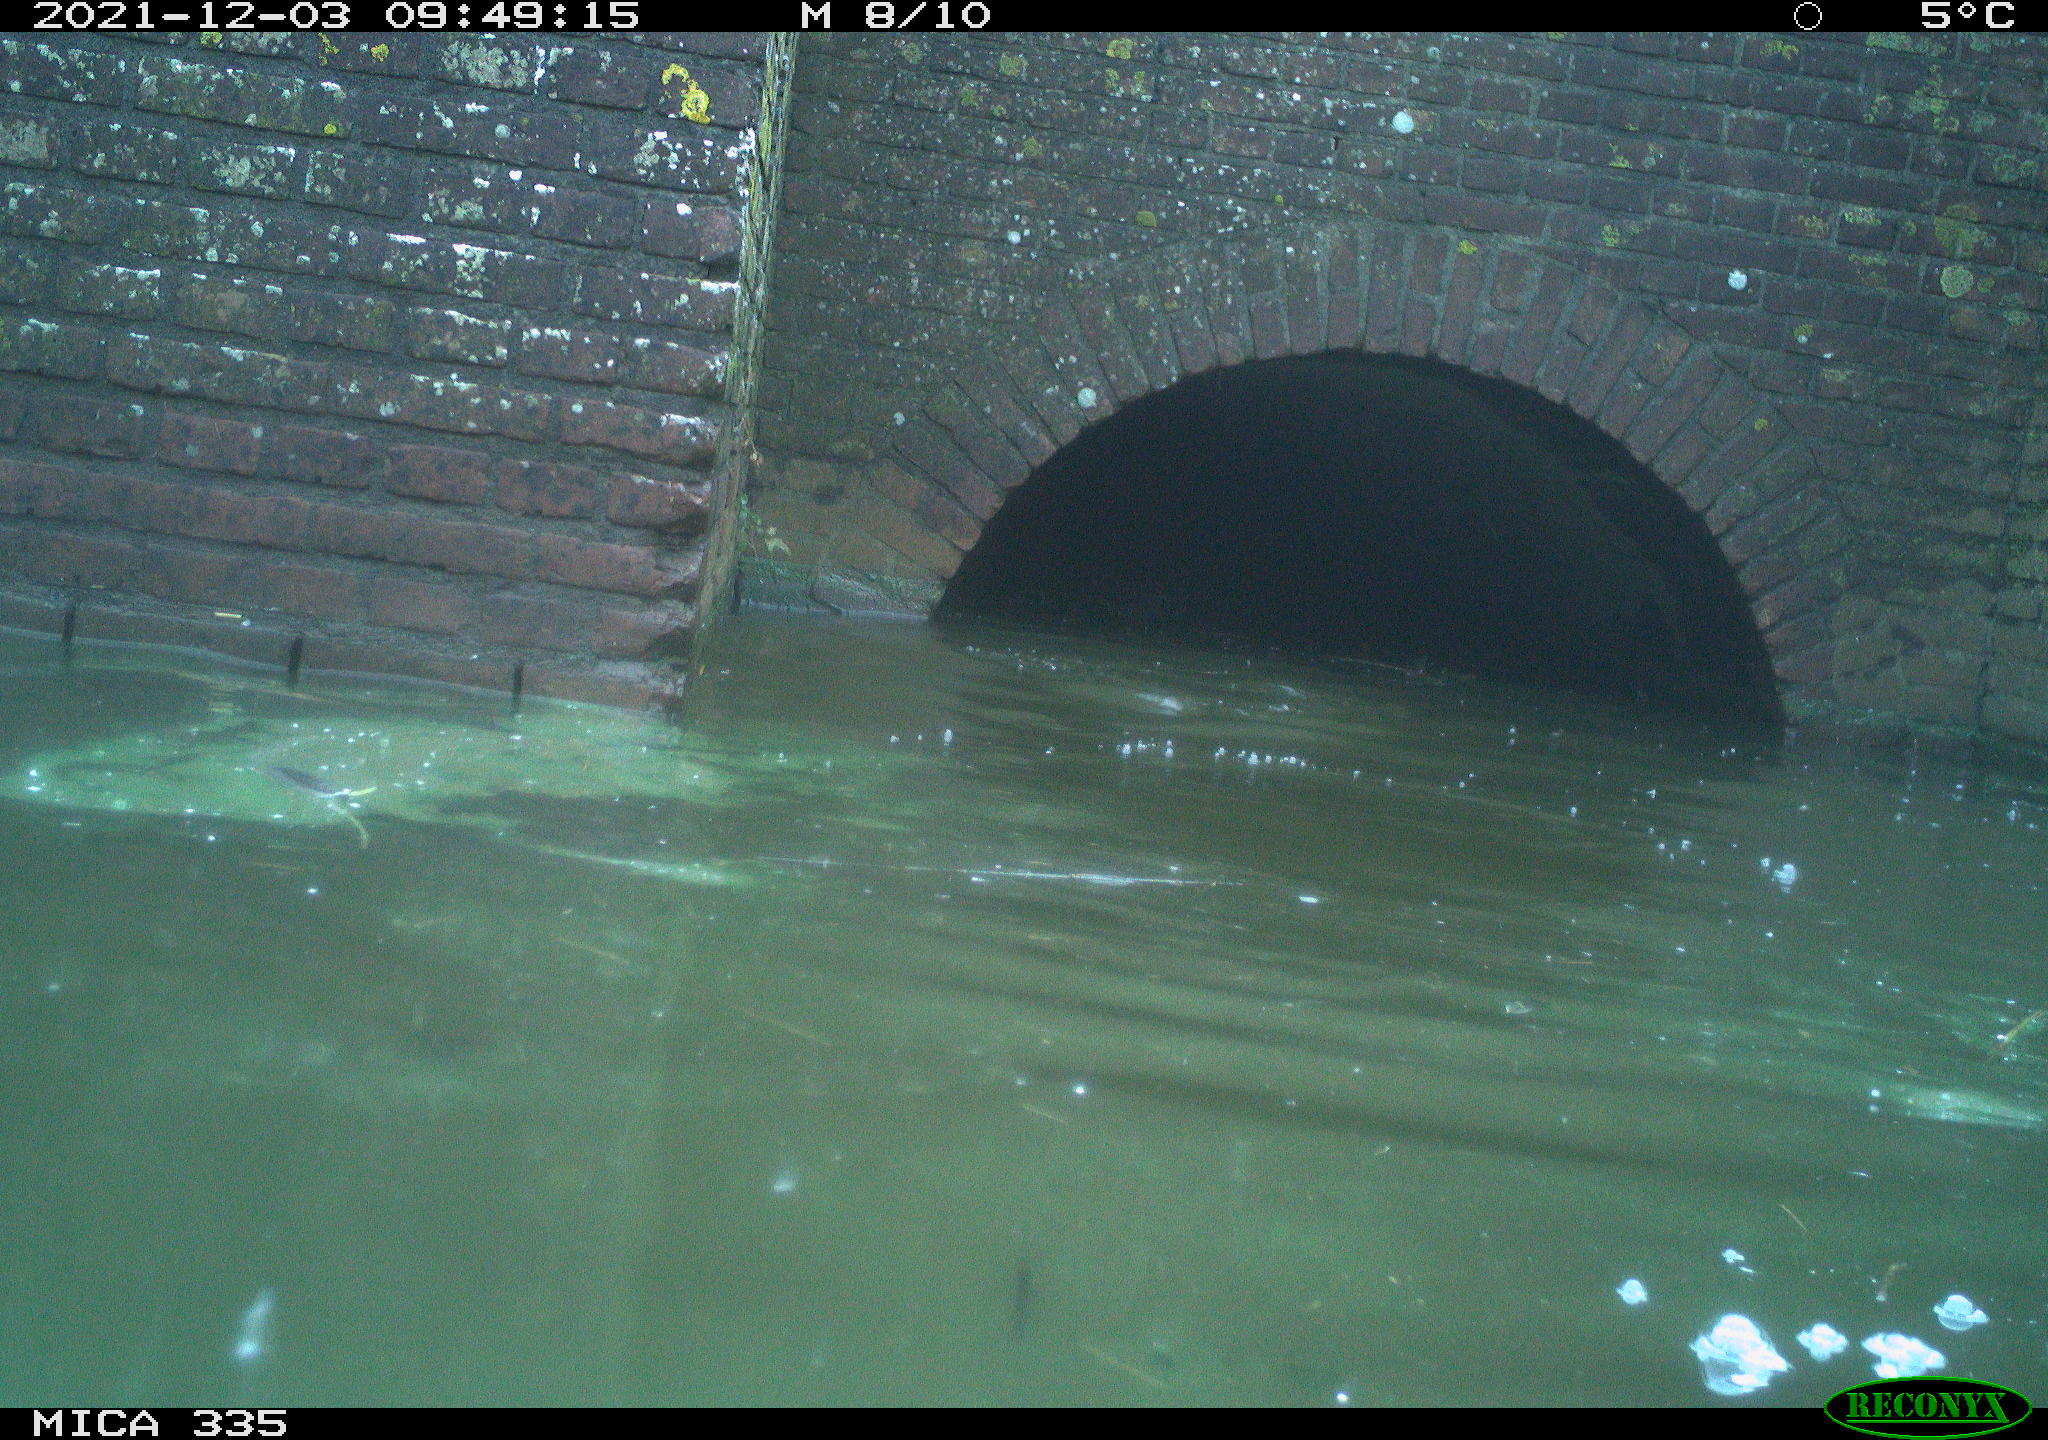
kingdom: Animalia
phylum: Chordata
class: Aves
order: Suliformes
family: Phalacrocoracidae
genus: Phalacrocorax
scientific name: Phalacrocorax carbo
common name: Great cormorant
